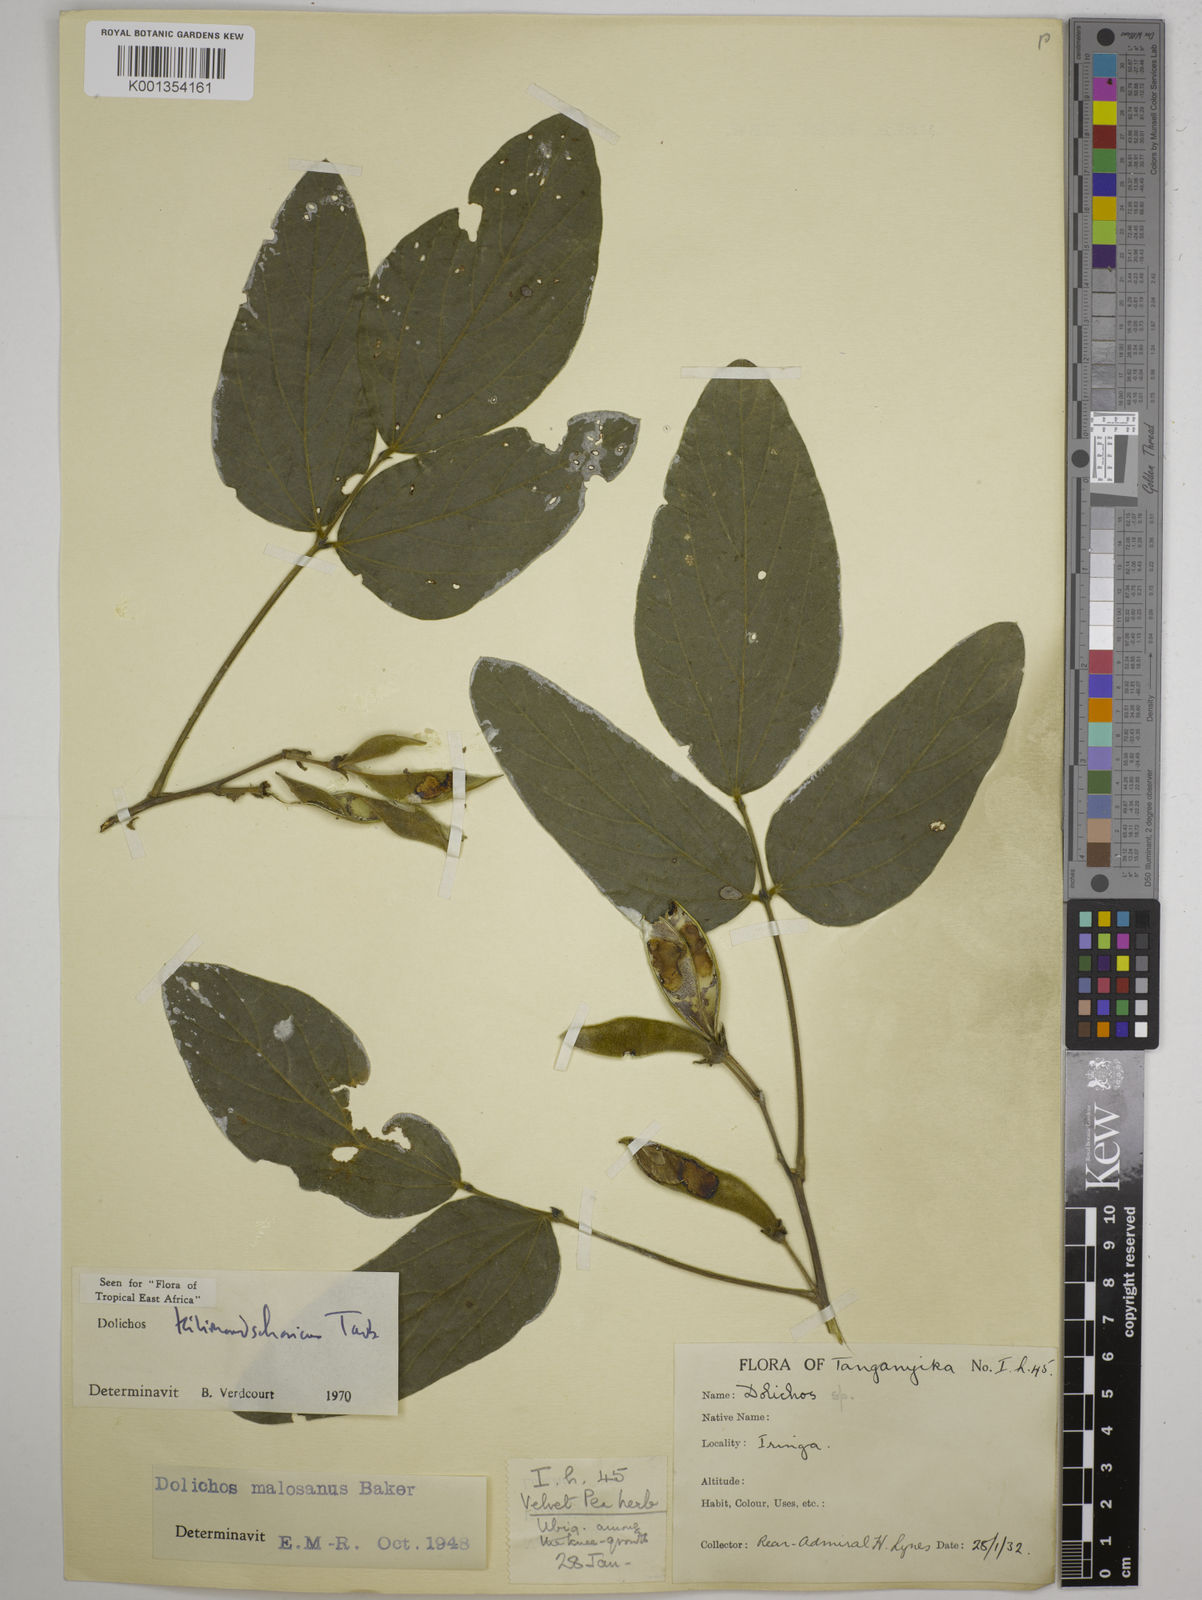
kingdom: Plantae
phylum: Tracheophyta
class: Magnoliopsida
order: Fabales
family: Fabaceae
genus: Dolichos
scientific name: Dolichos kilimandscharicus
